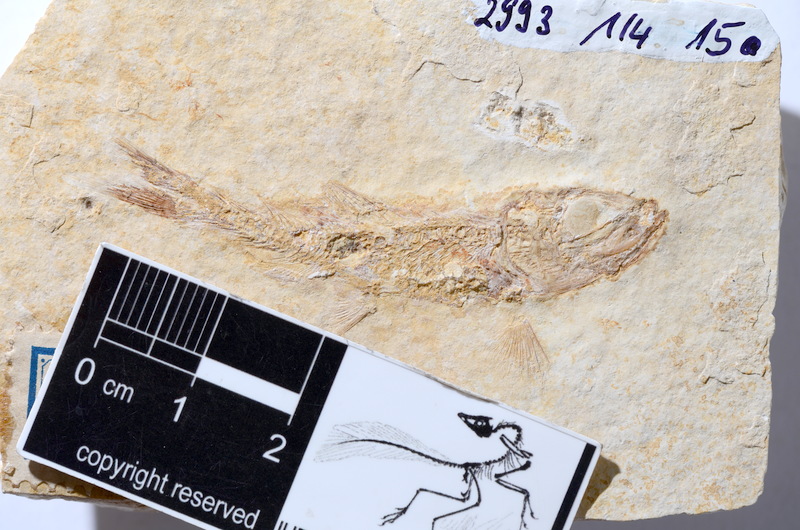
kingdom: Animalia
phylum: Chordata
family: Ascalaboidae
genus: Tharsis
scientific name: Tharsis dubius
